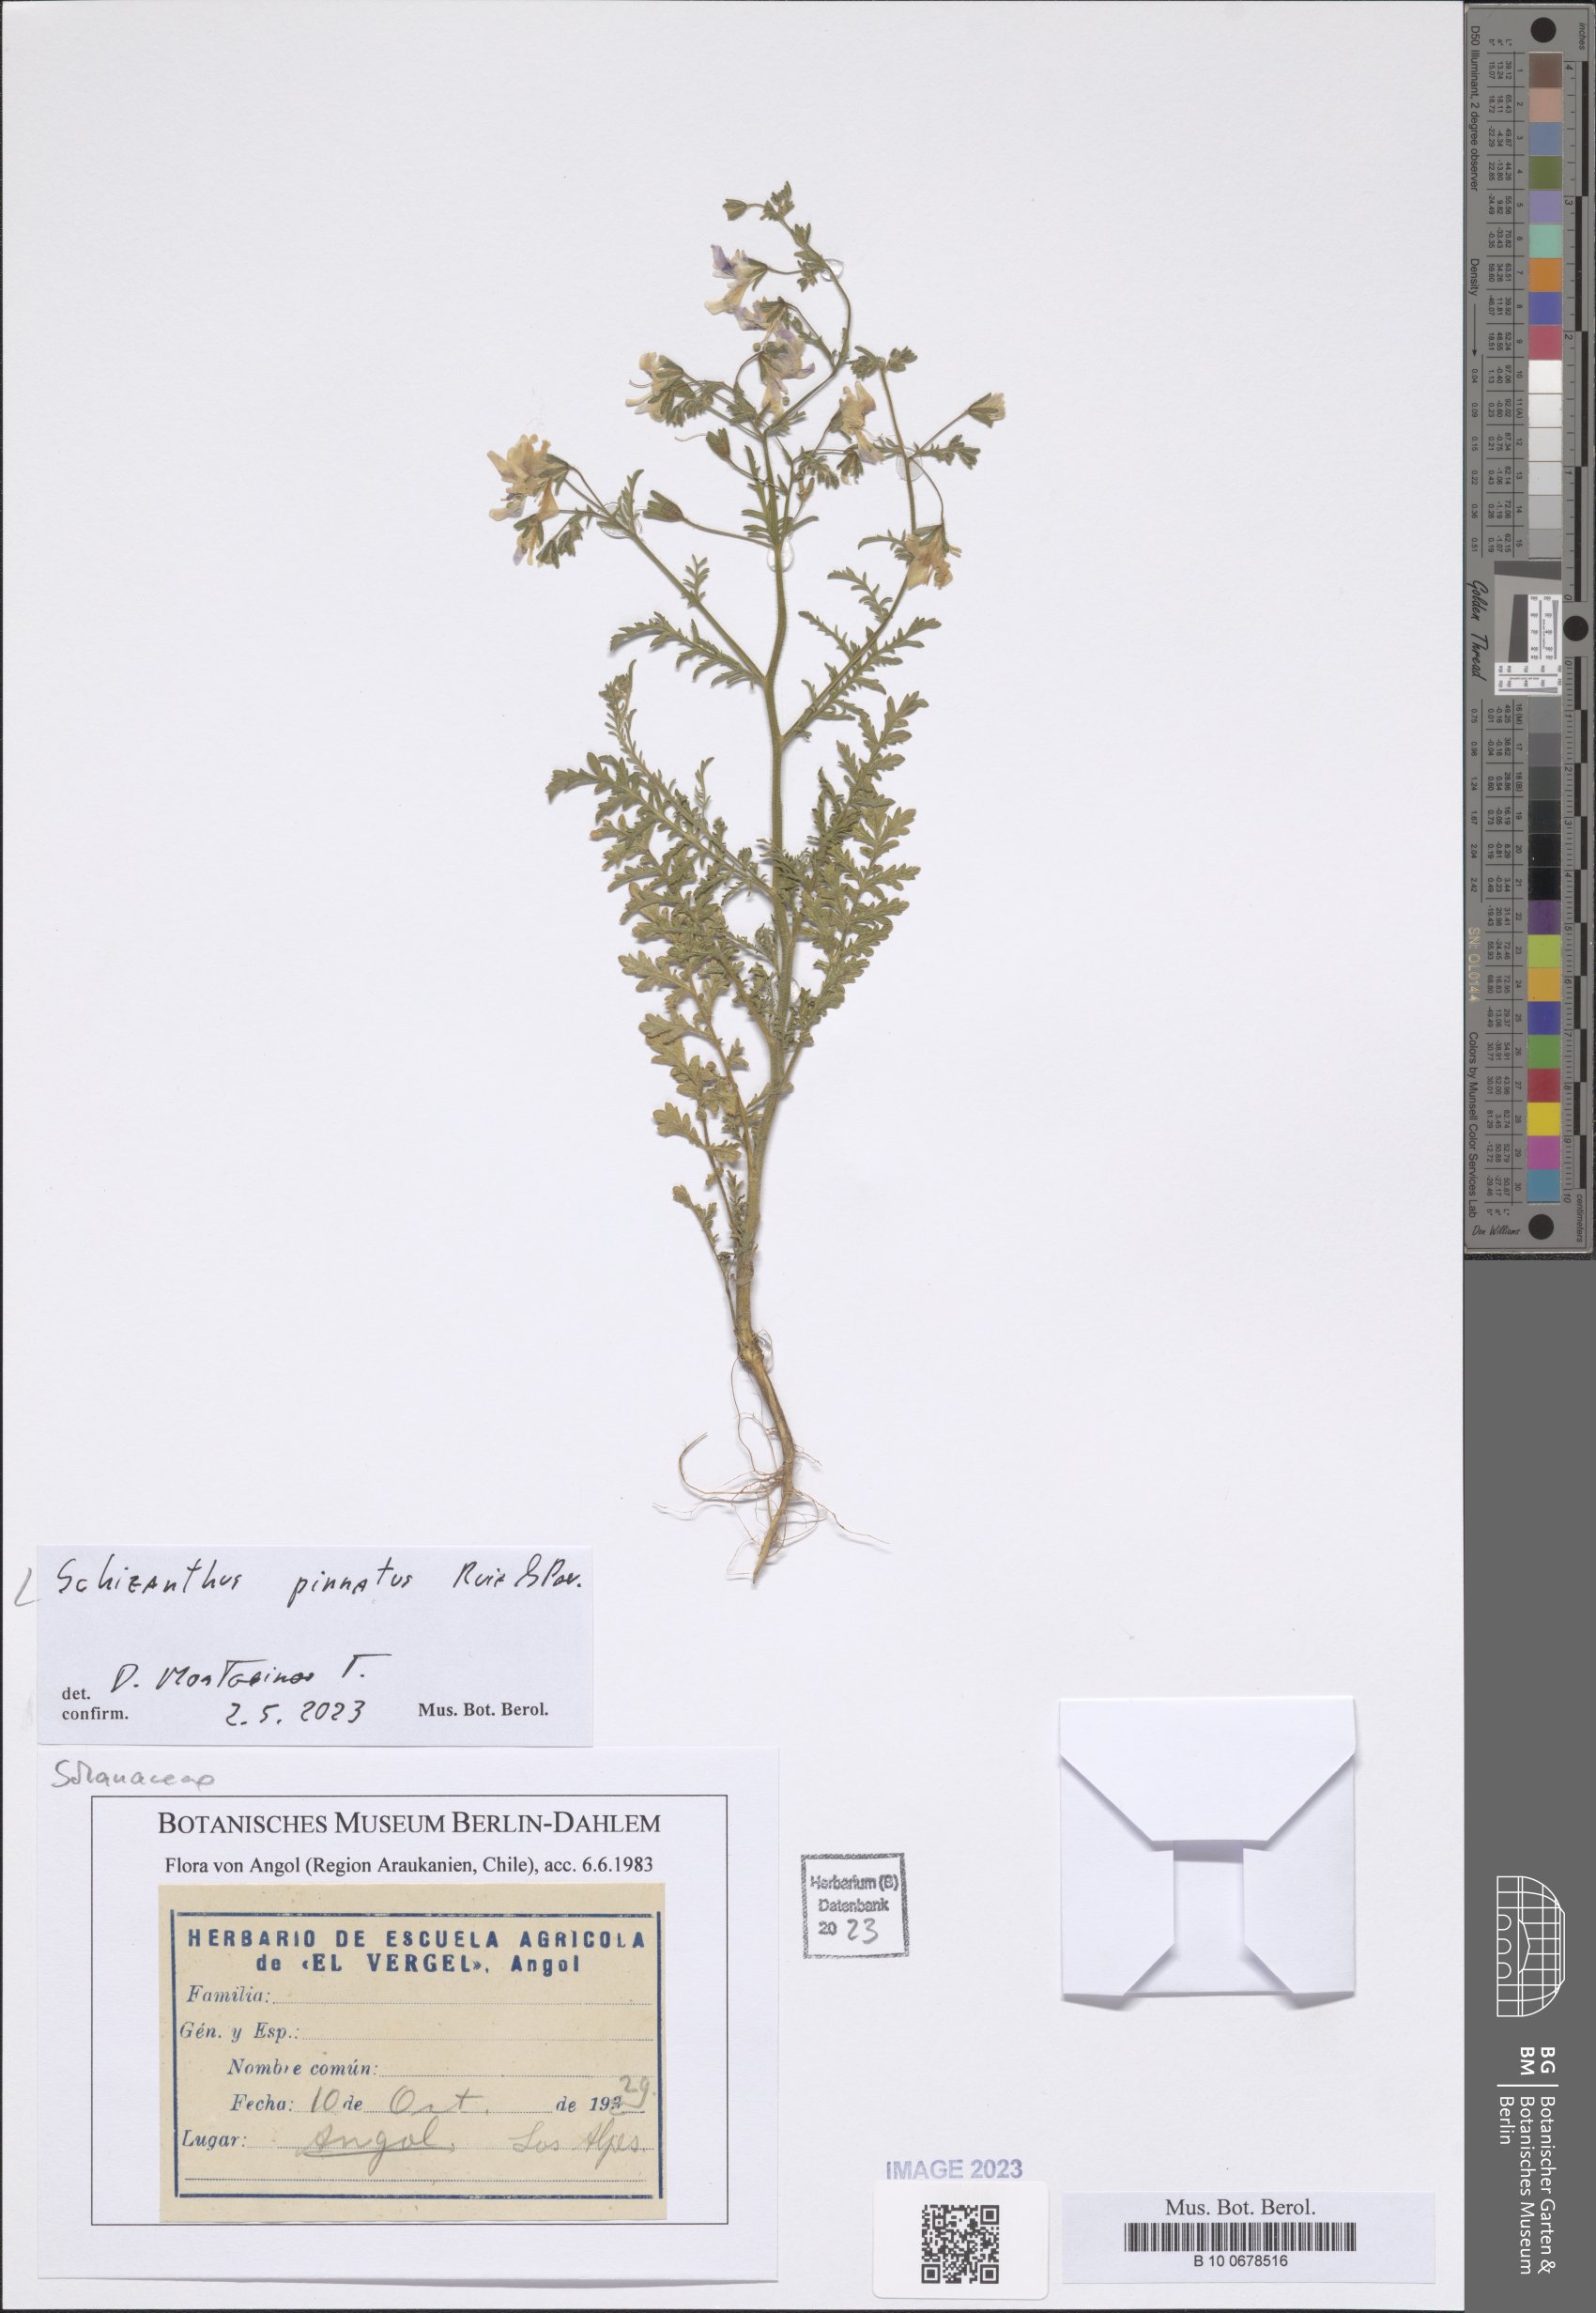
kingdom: Plantae
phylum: Tracheophyta
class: Magnoliopsida
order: Solanales
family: Solanaceae
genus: Schizanthus
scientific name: Schizanthus pinnatus
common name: Poor-man's-orchid
